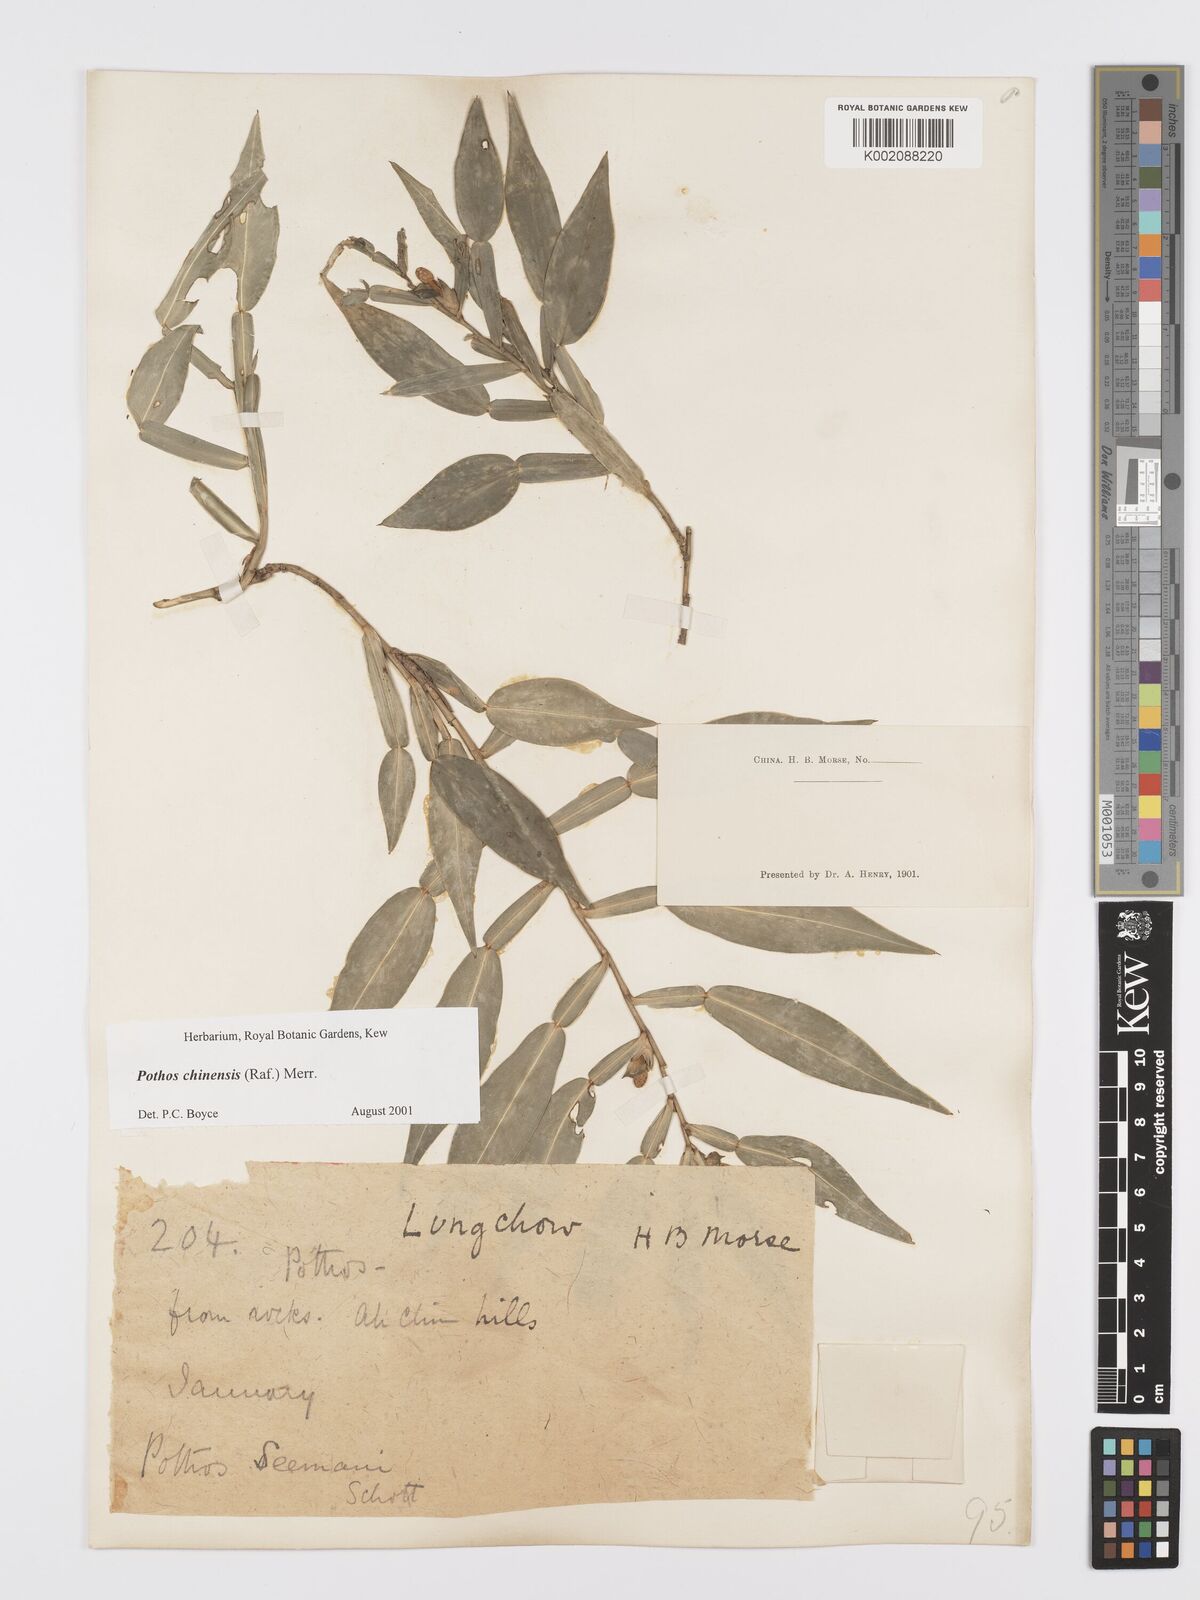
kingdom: Plantae
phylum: Tracheophyta
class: Liliopsida
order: Alismatales
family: Araceae
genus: Pothos
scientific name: Pothos chinensis
